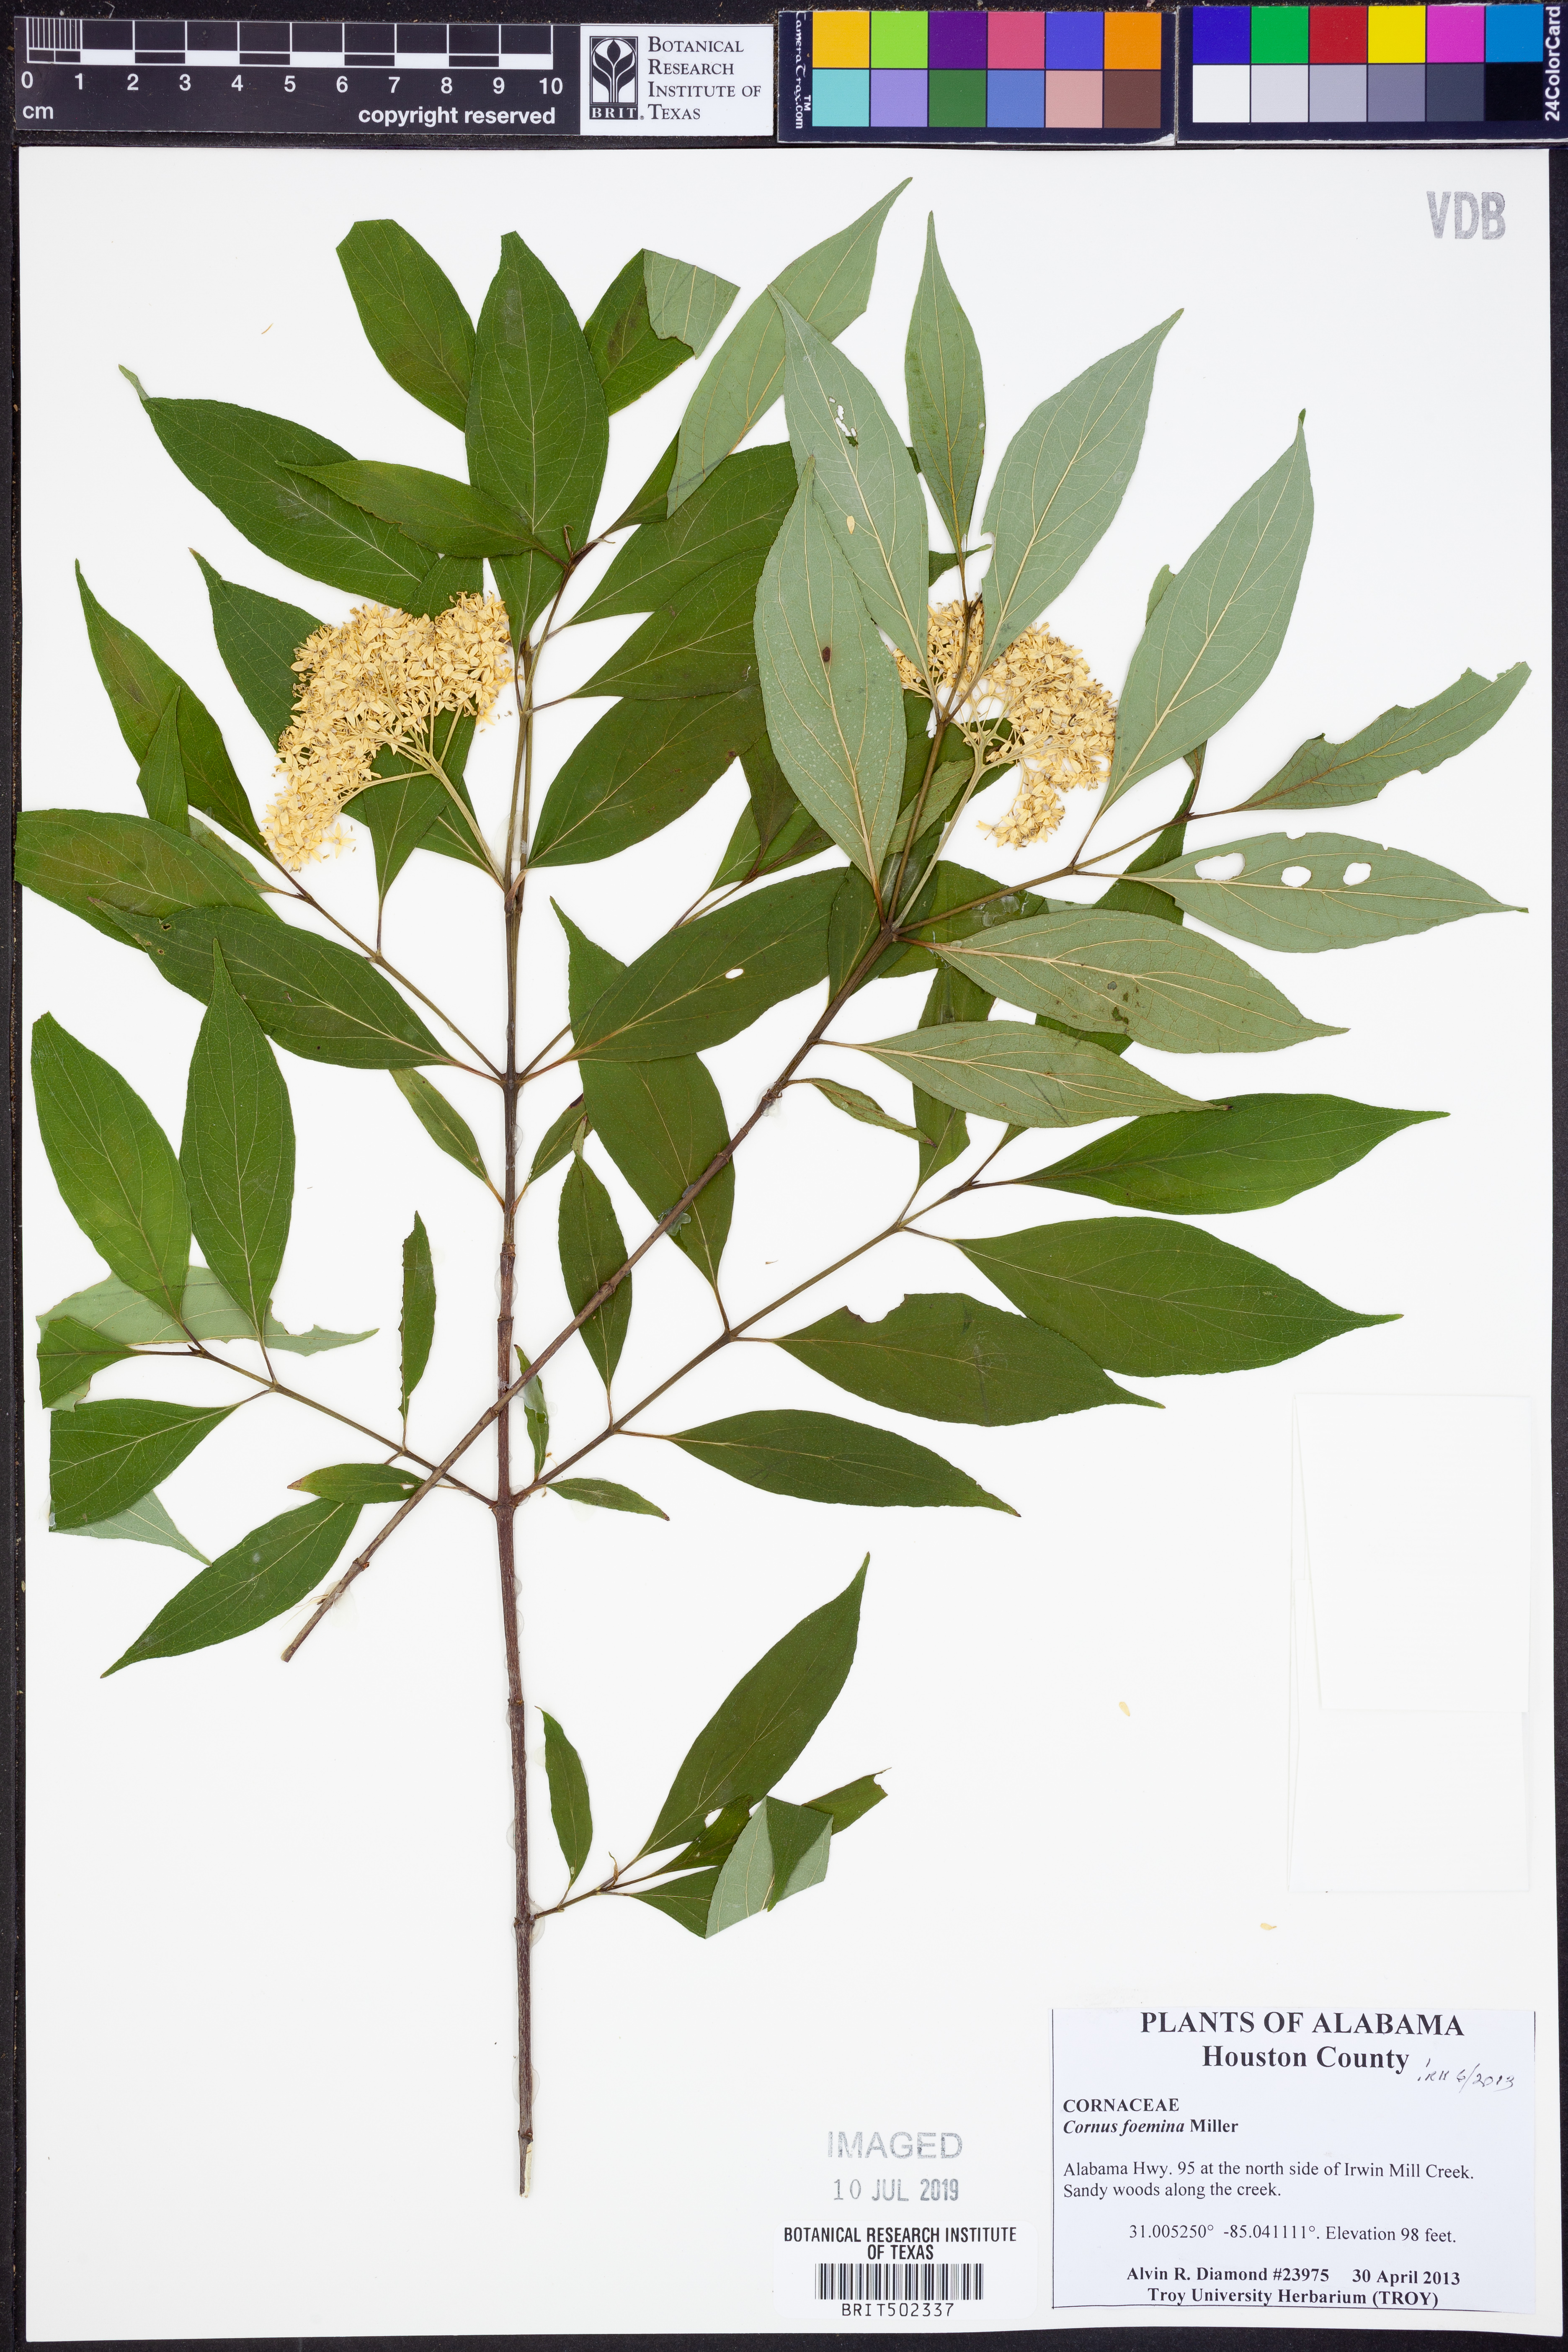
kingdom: Plantae
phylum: Tracheophyta
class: Magnoliopsida
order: Cornales
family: Cornaceae
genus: Cornus
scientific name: Cornus foemina
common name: Swamp dogwood
